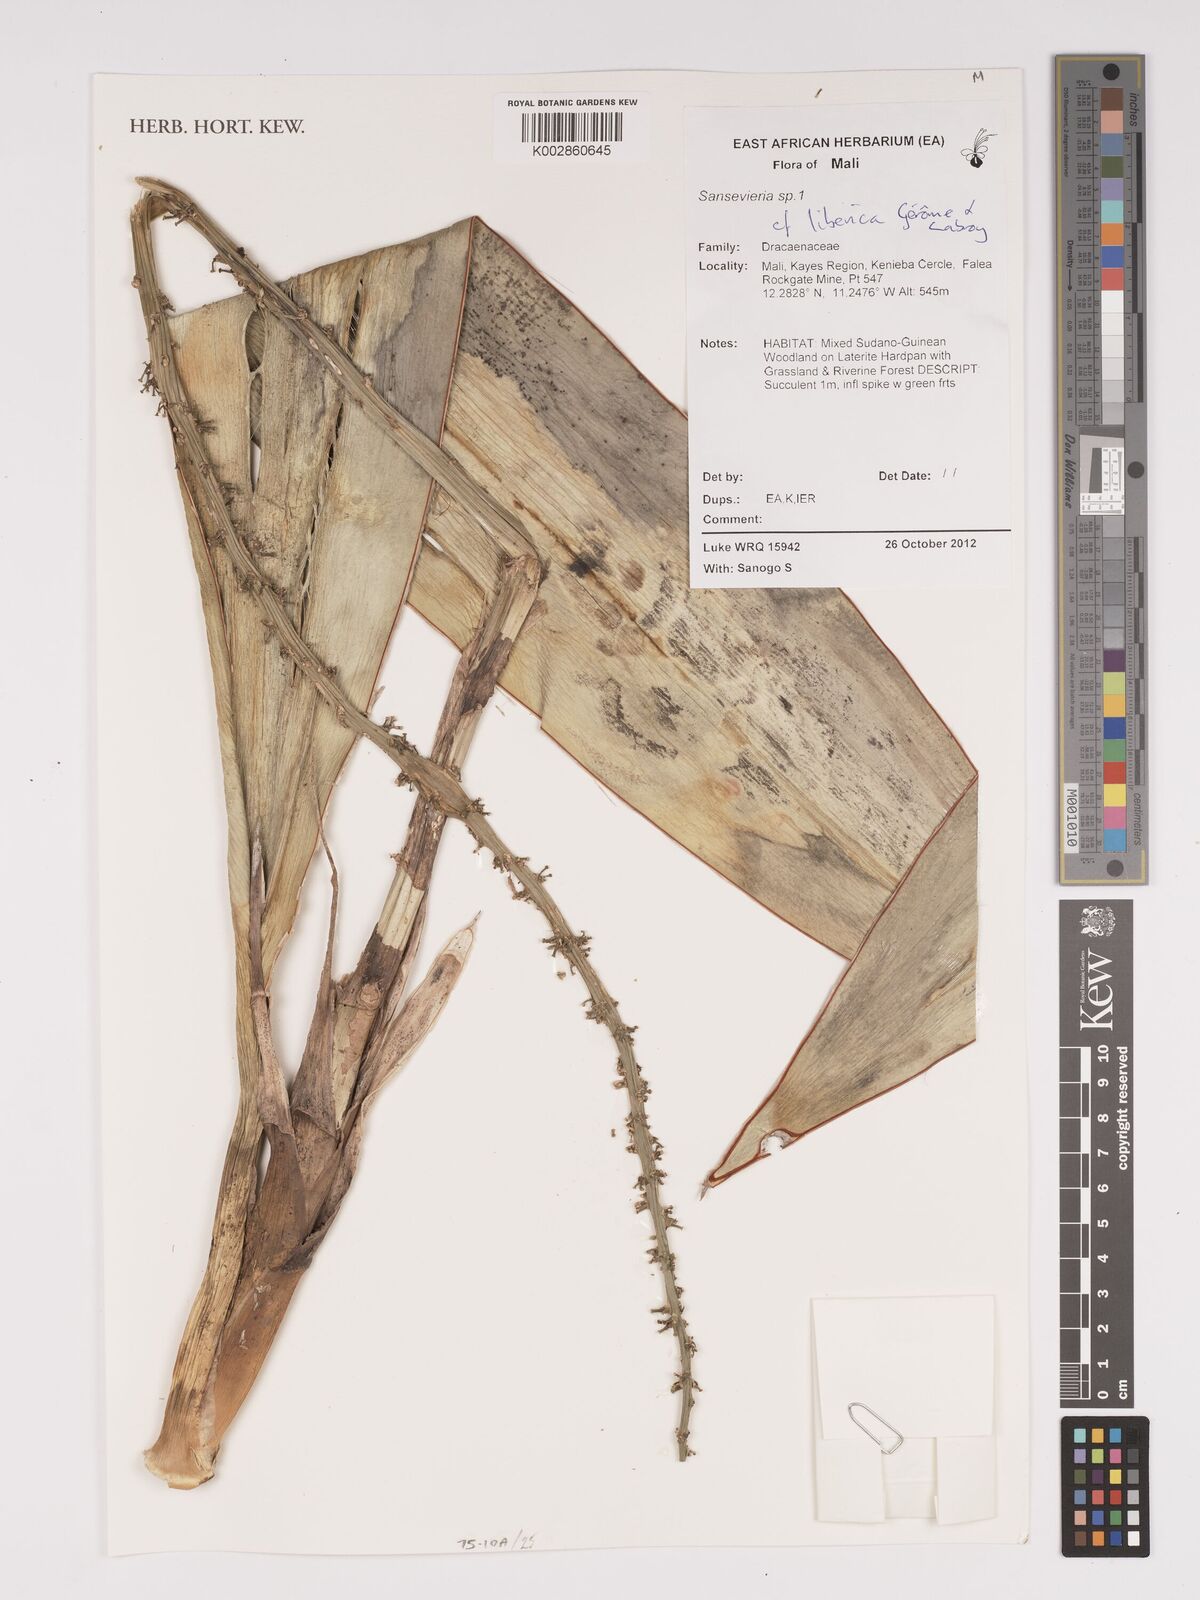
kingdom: Plantae
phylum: Tracheophyta
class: Liliopsida
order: Asparagales
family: Asparagaceae
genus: Dracaena
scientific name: Dracaena liberica
